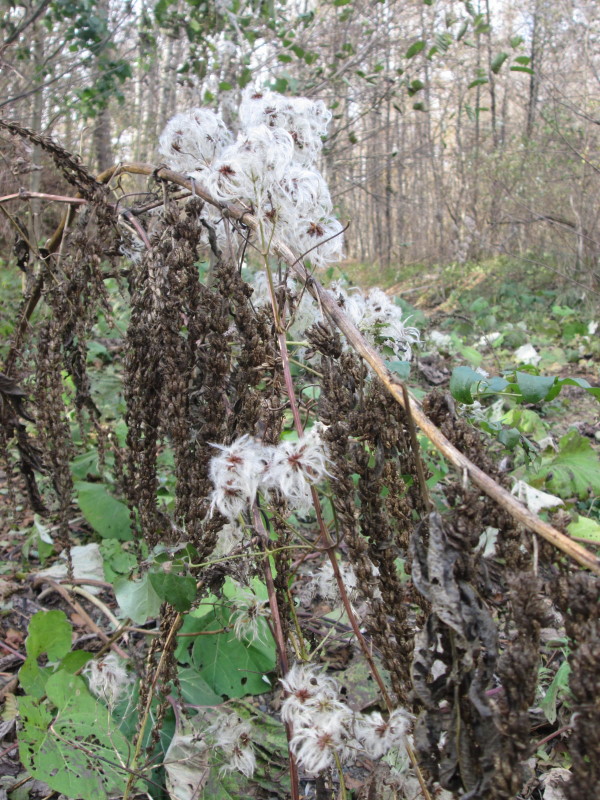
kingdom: Plantae
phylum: Tracheophyta
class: Magnoliopsida
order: Ranunculales
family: Ranunculaceae
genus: Clematis
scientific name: Clematis integrifolia
